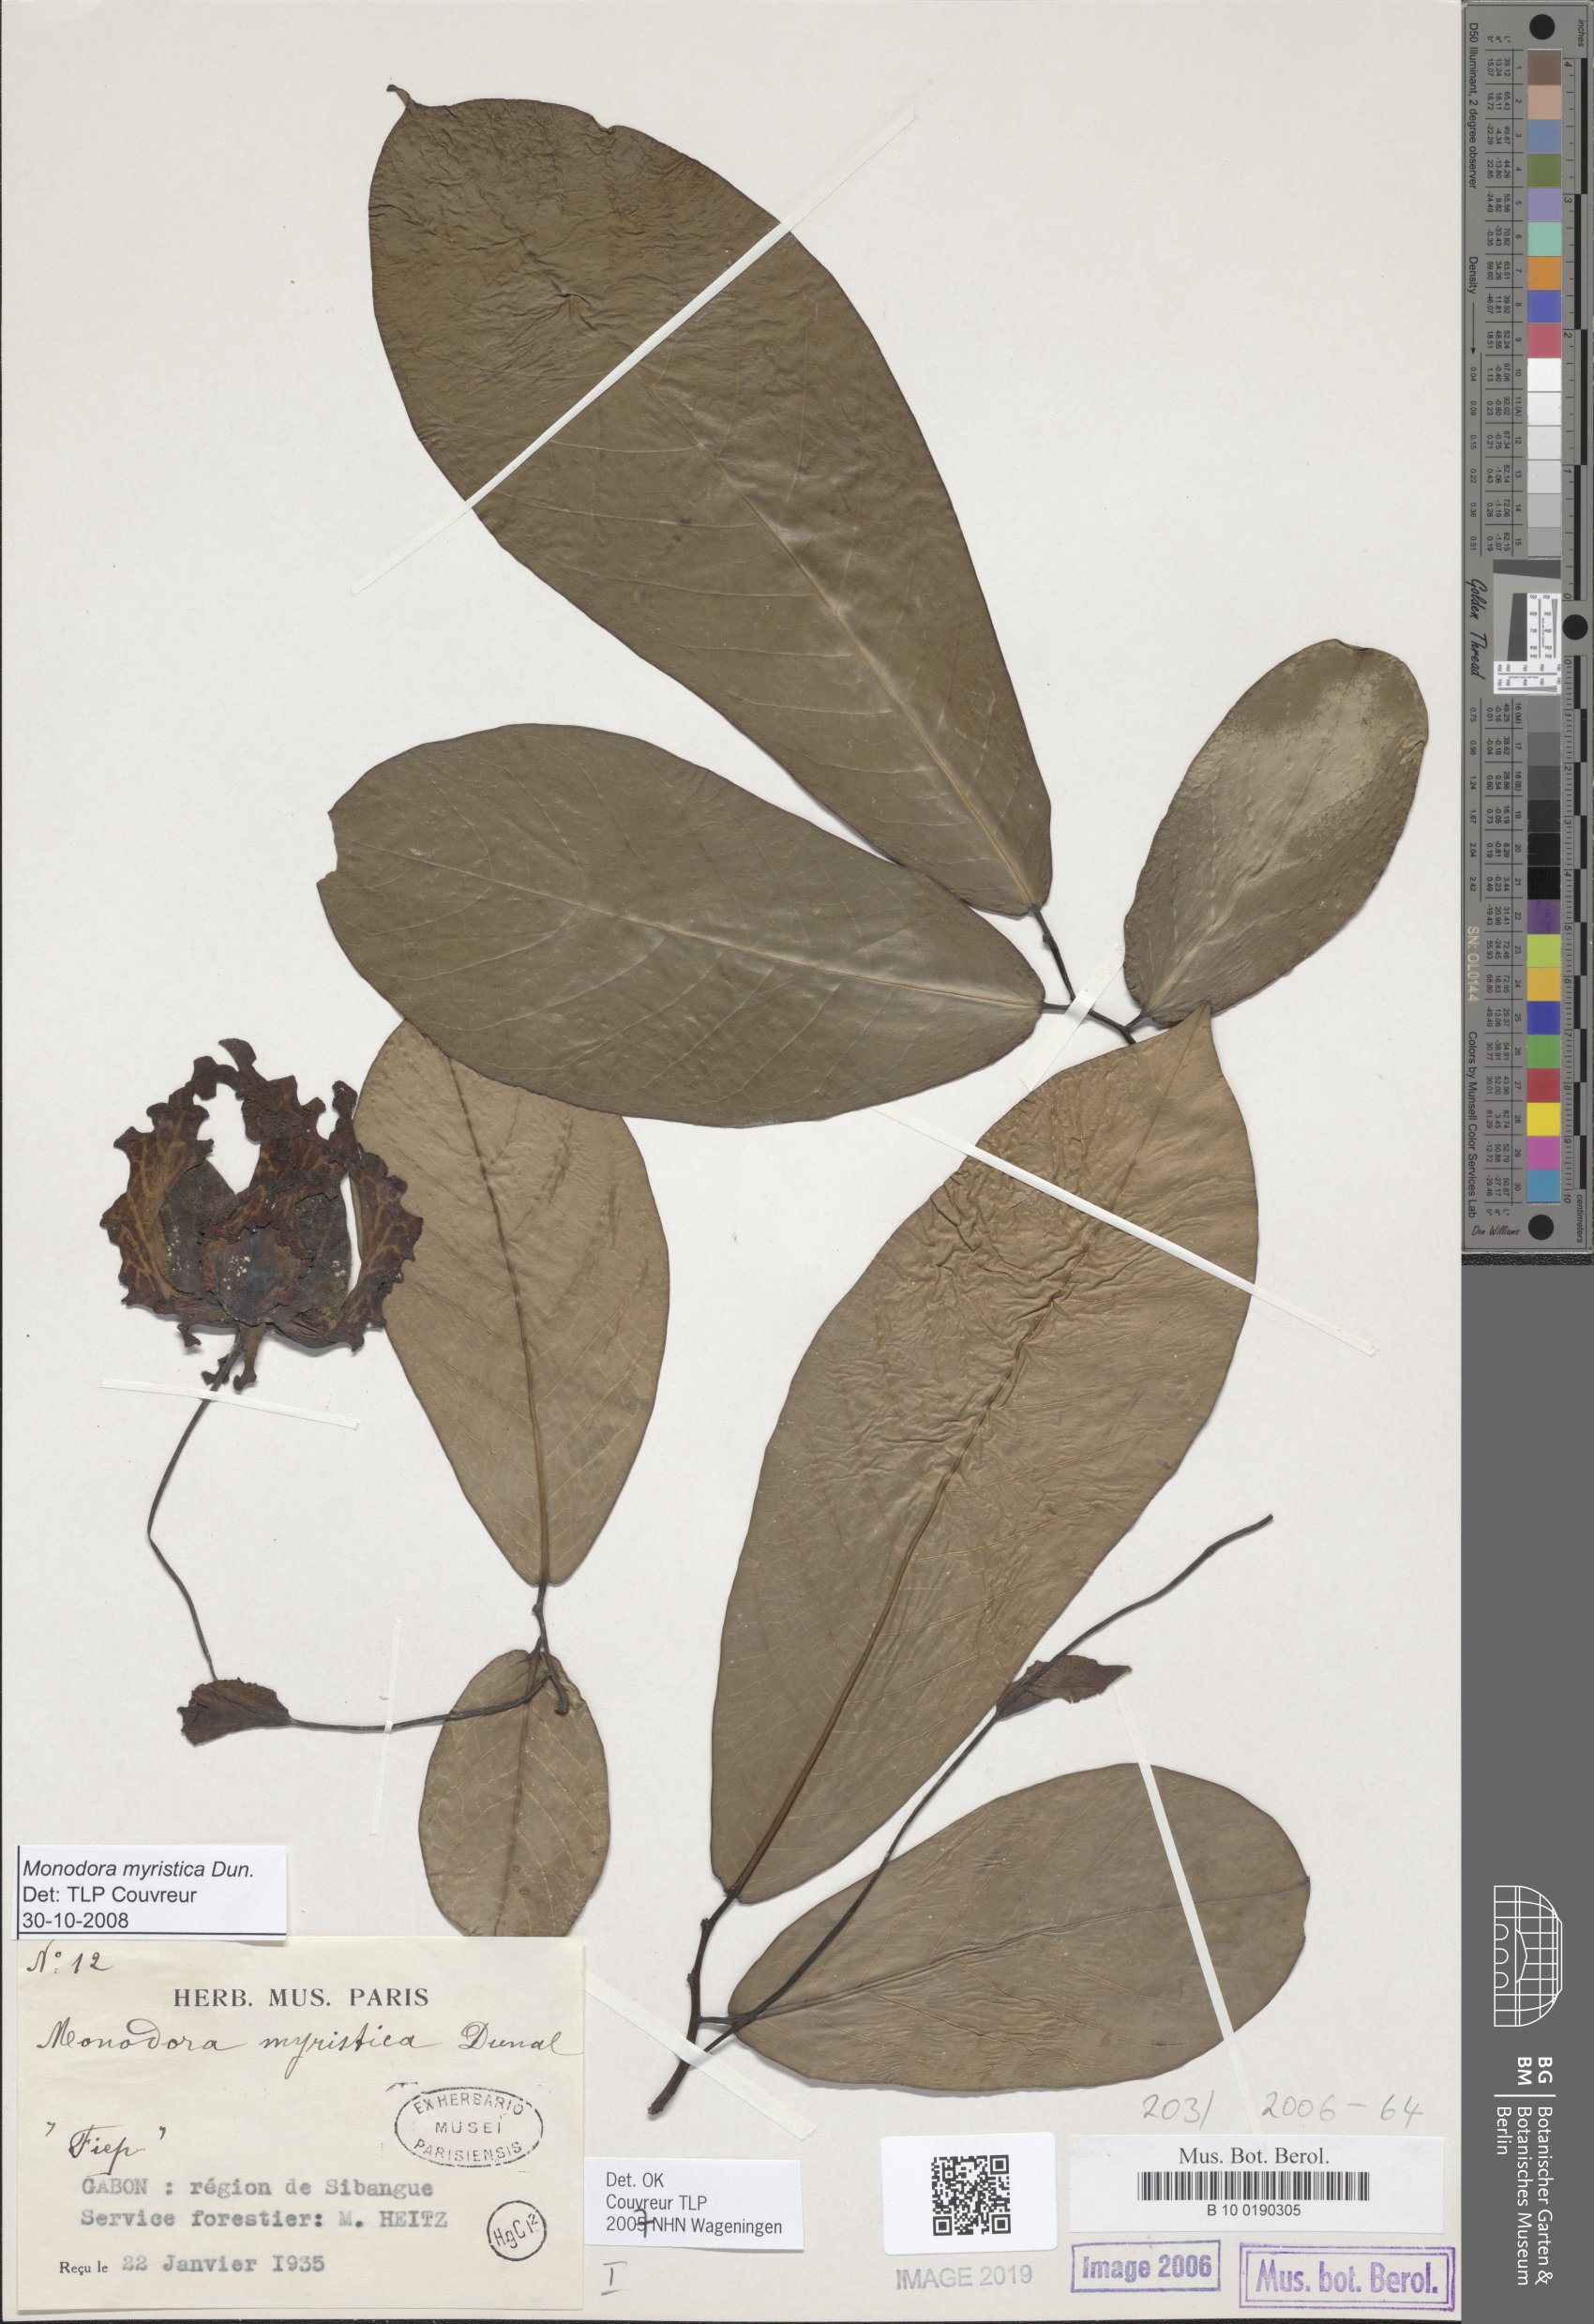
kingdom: Plantae
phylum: Tracheophyta
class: Magnoliopsida
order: Magnoliales
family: Annonaceae
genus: Monodora
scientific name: Monodora myristica
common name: African nutmeg
